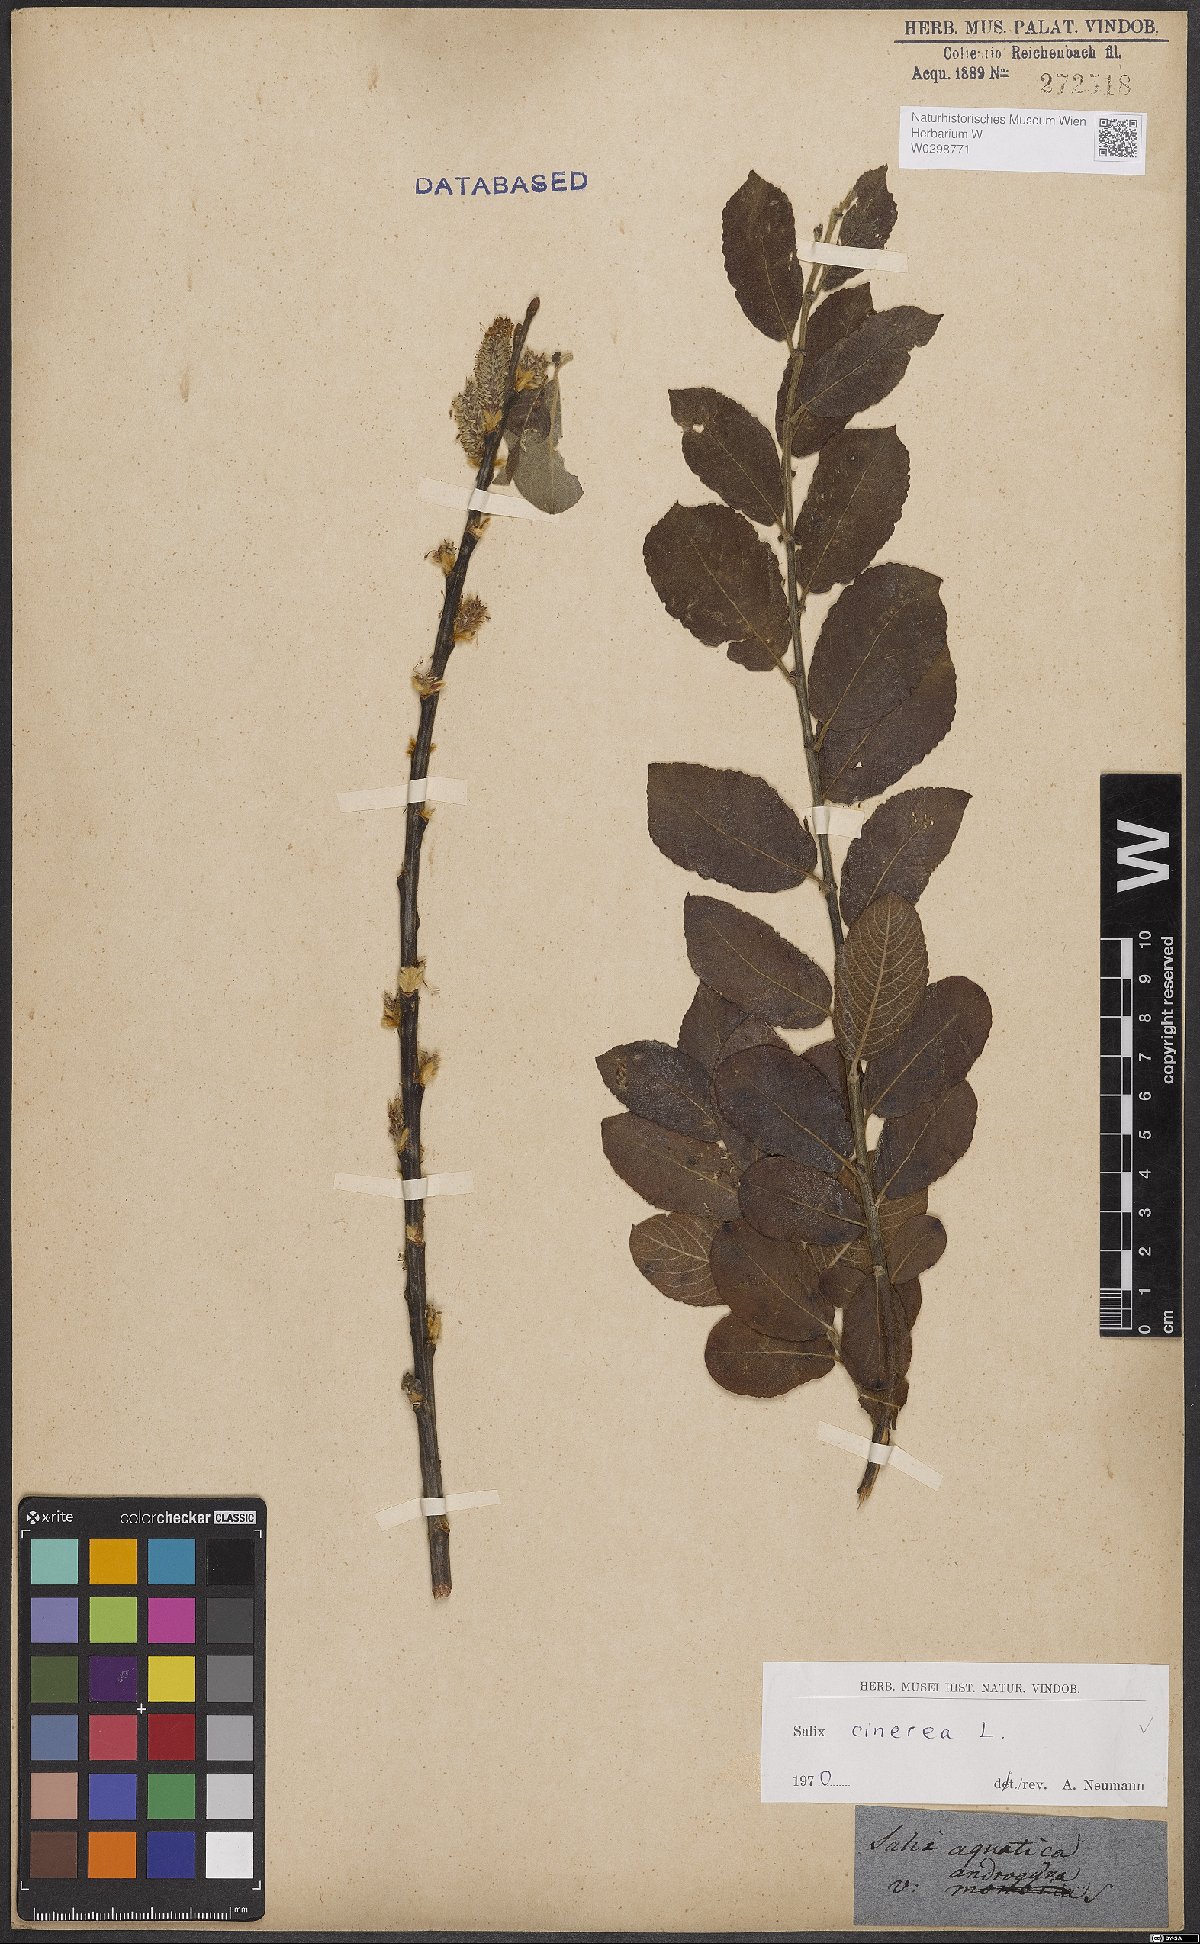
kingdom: Plantae
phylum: Tracheophyta
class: Magnoliopsida
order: Malpighiales
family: Salicaceae
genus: Salix
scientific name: Salix cinerea
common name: Common sallow
